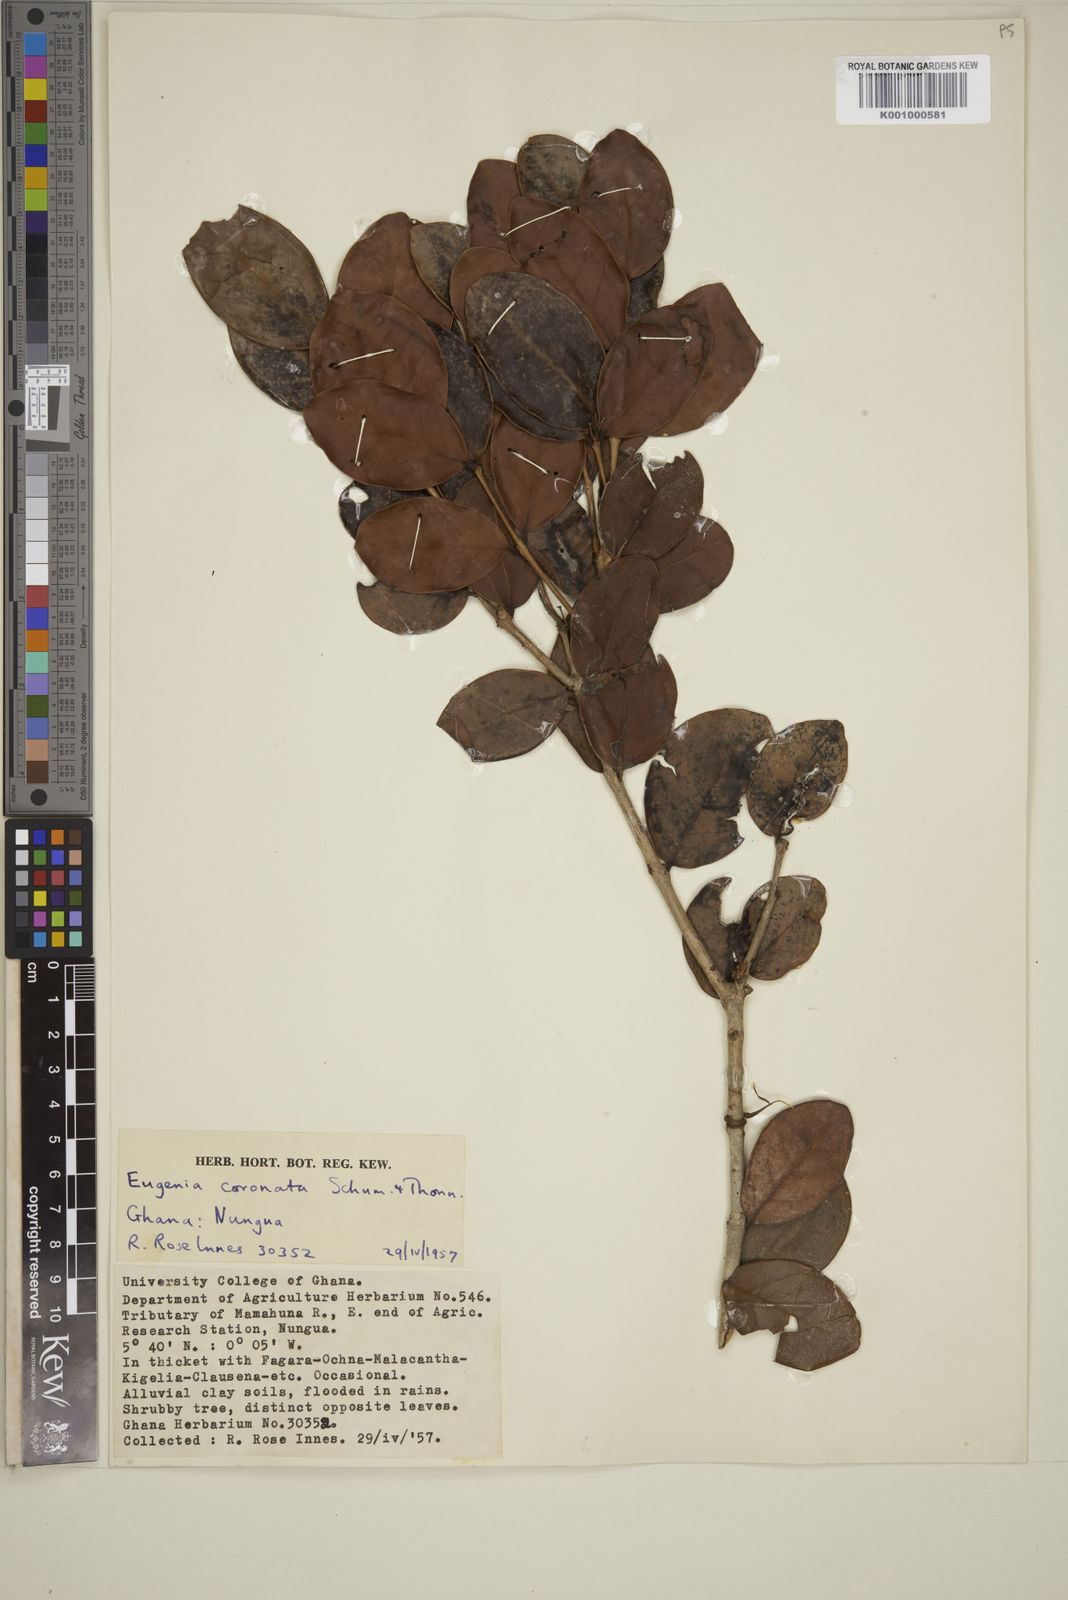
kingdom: Plantae
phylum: Tracheophyta
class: Magnoliopsida
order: Myrtales
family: Myrtaceae
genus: Eugenia
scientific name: Eugenia coronata
